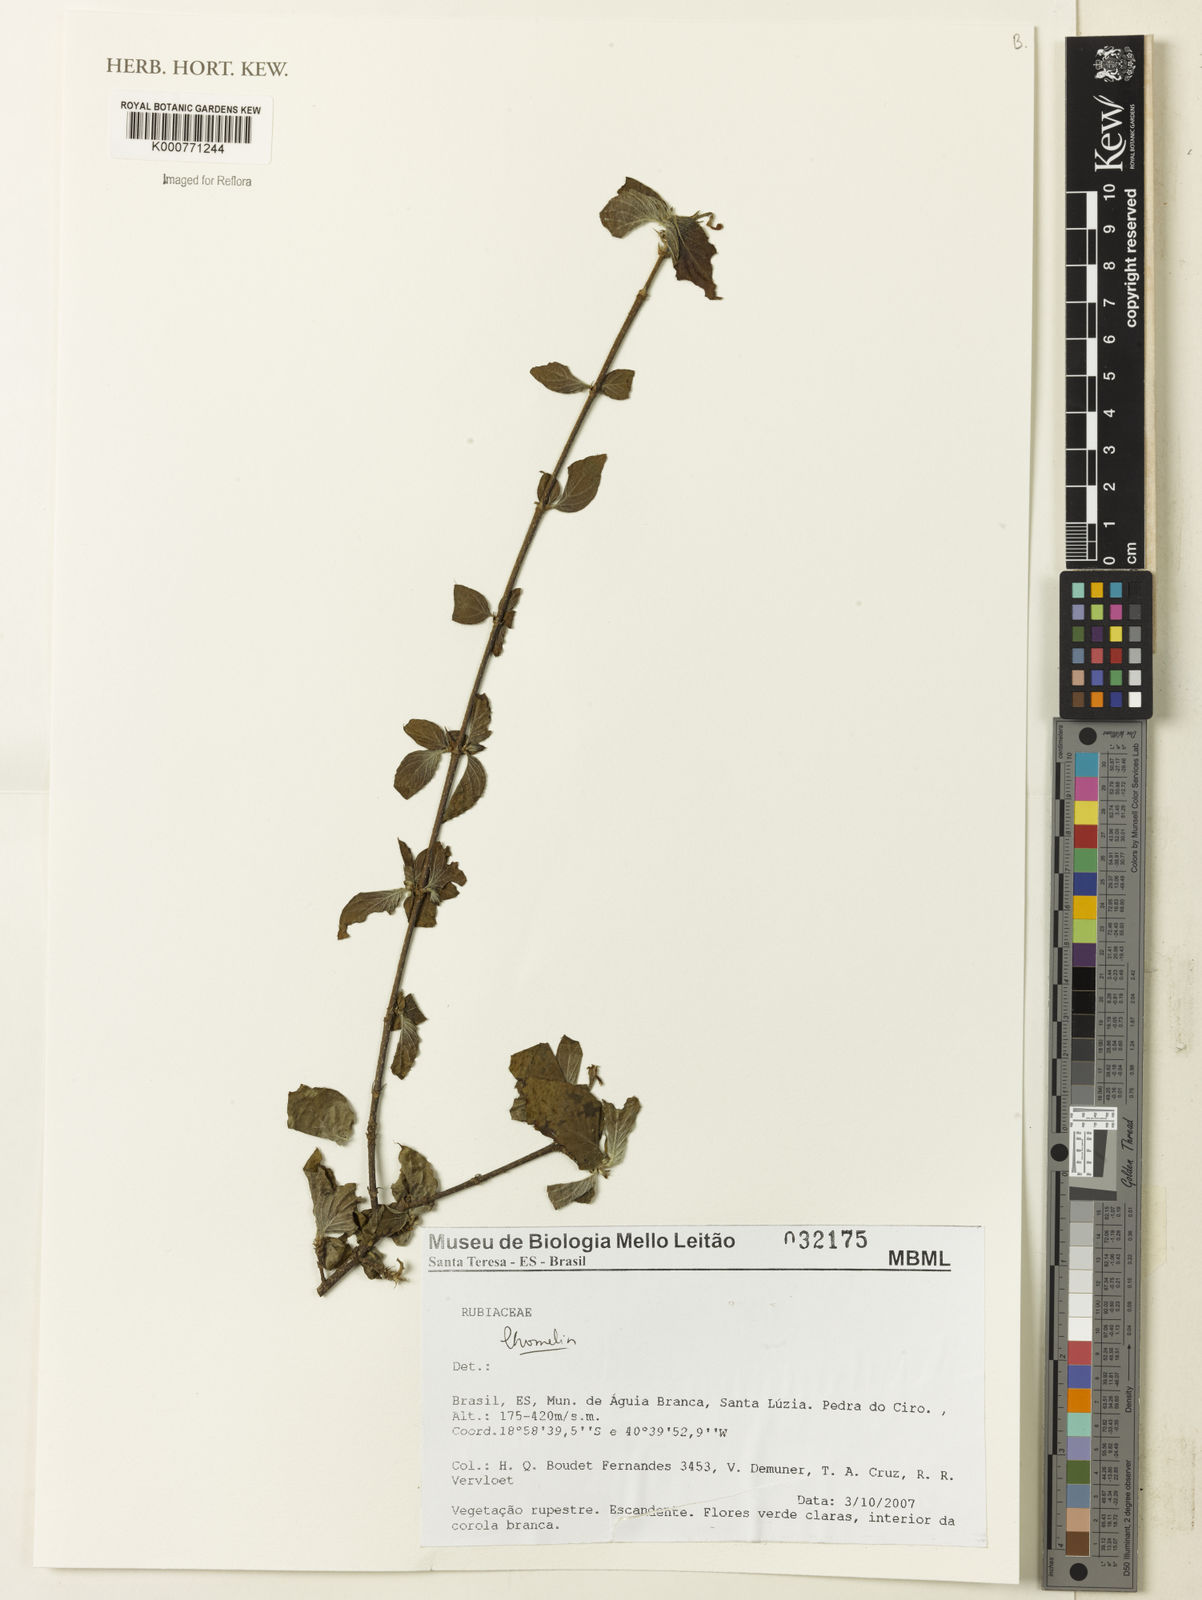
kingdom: Plantae
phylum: Tracheophyta
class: Magnoliopsida
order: Gentianales
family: Rubiaceae
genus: Chomelia
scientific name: Chomelia
